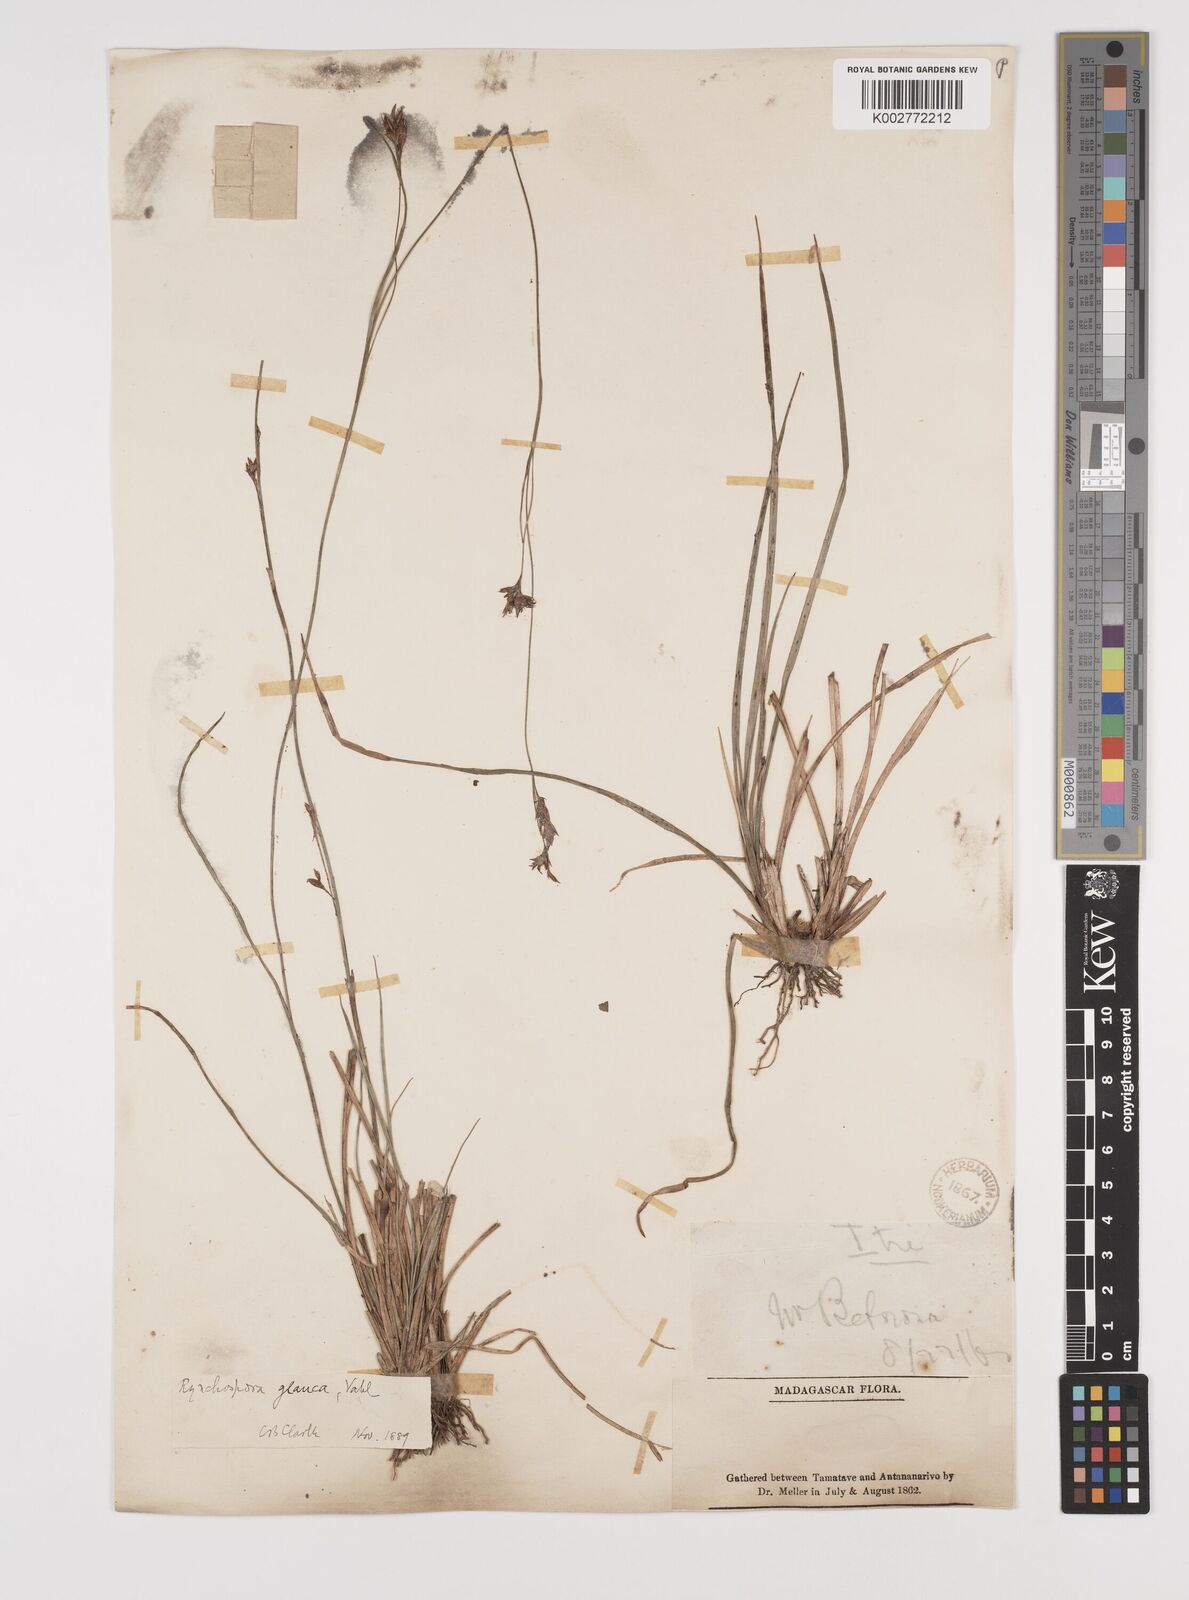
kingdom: Plantae
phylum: Tracheophyta
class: Liliopsida
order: Poales
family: Cyperaceae
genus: Rhynchospora
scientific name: Rhynchospora rugosa
